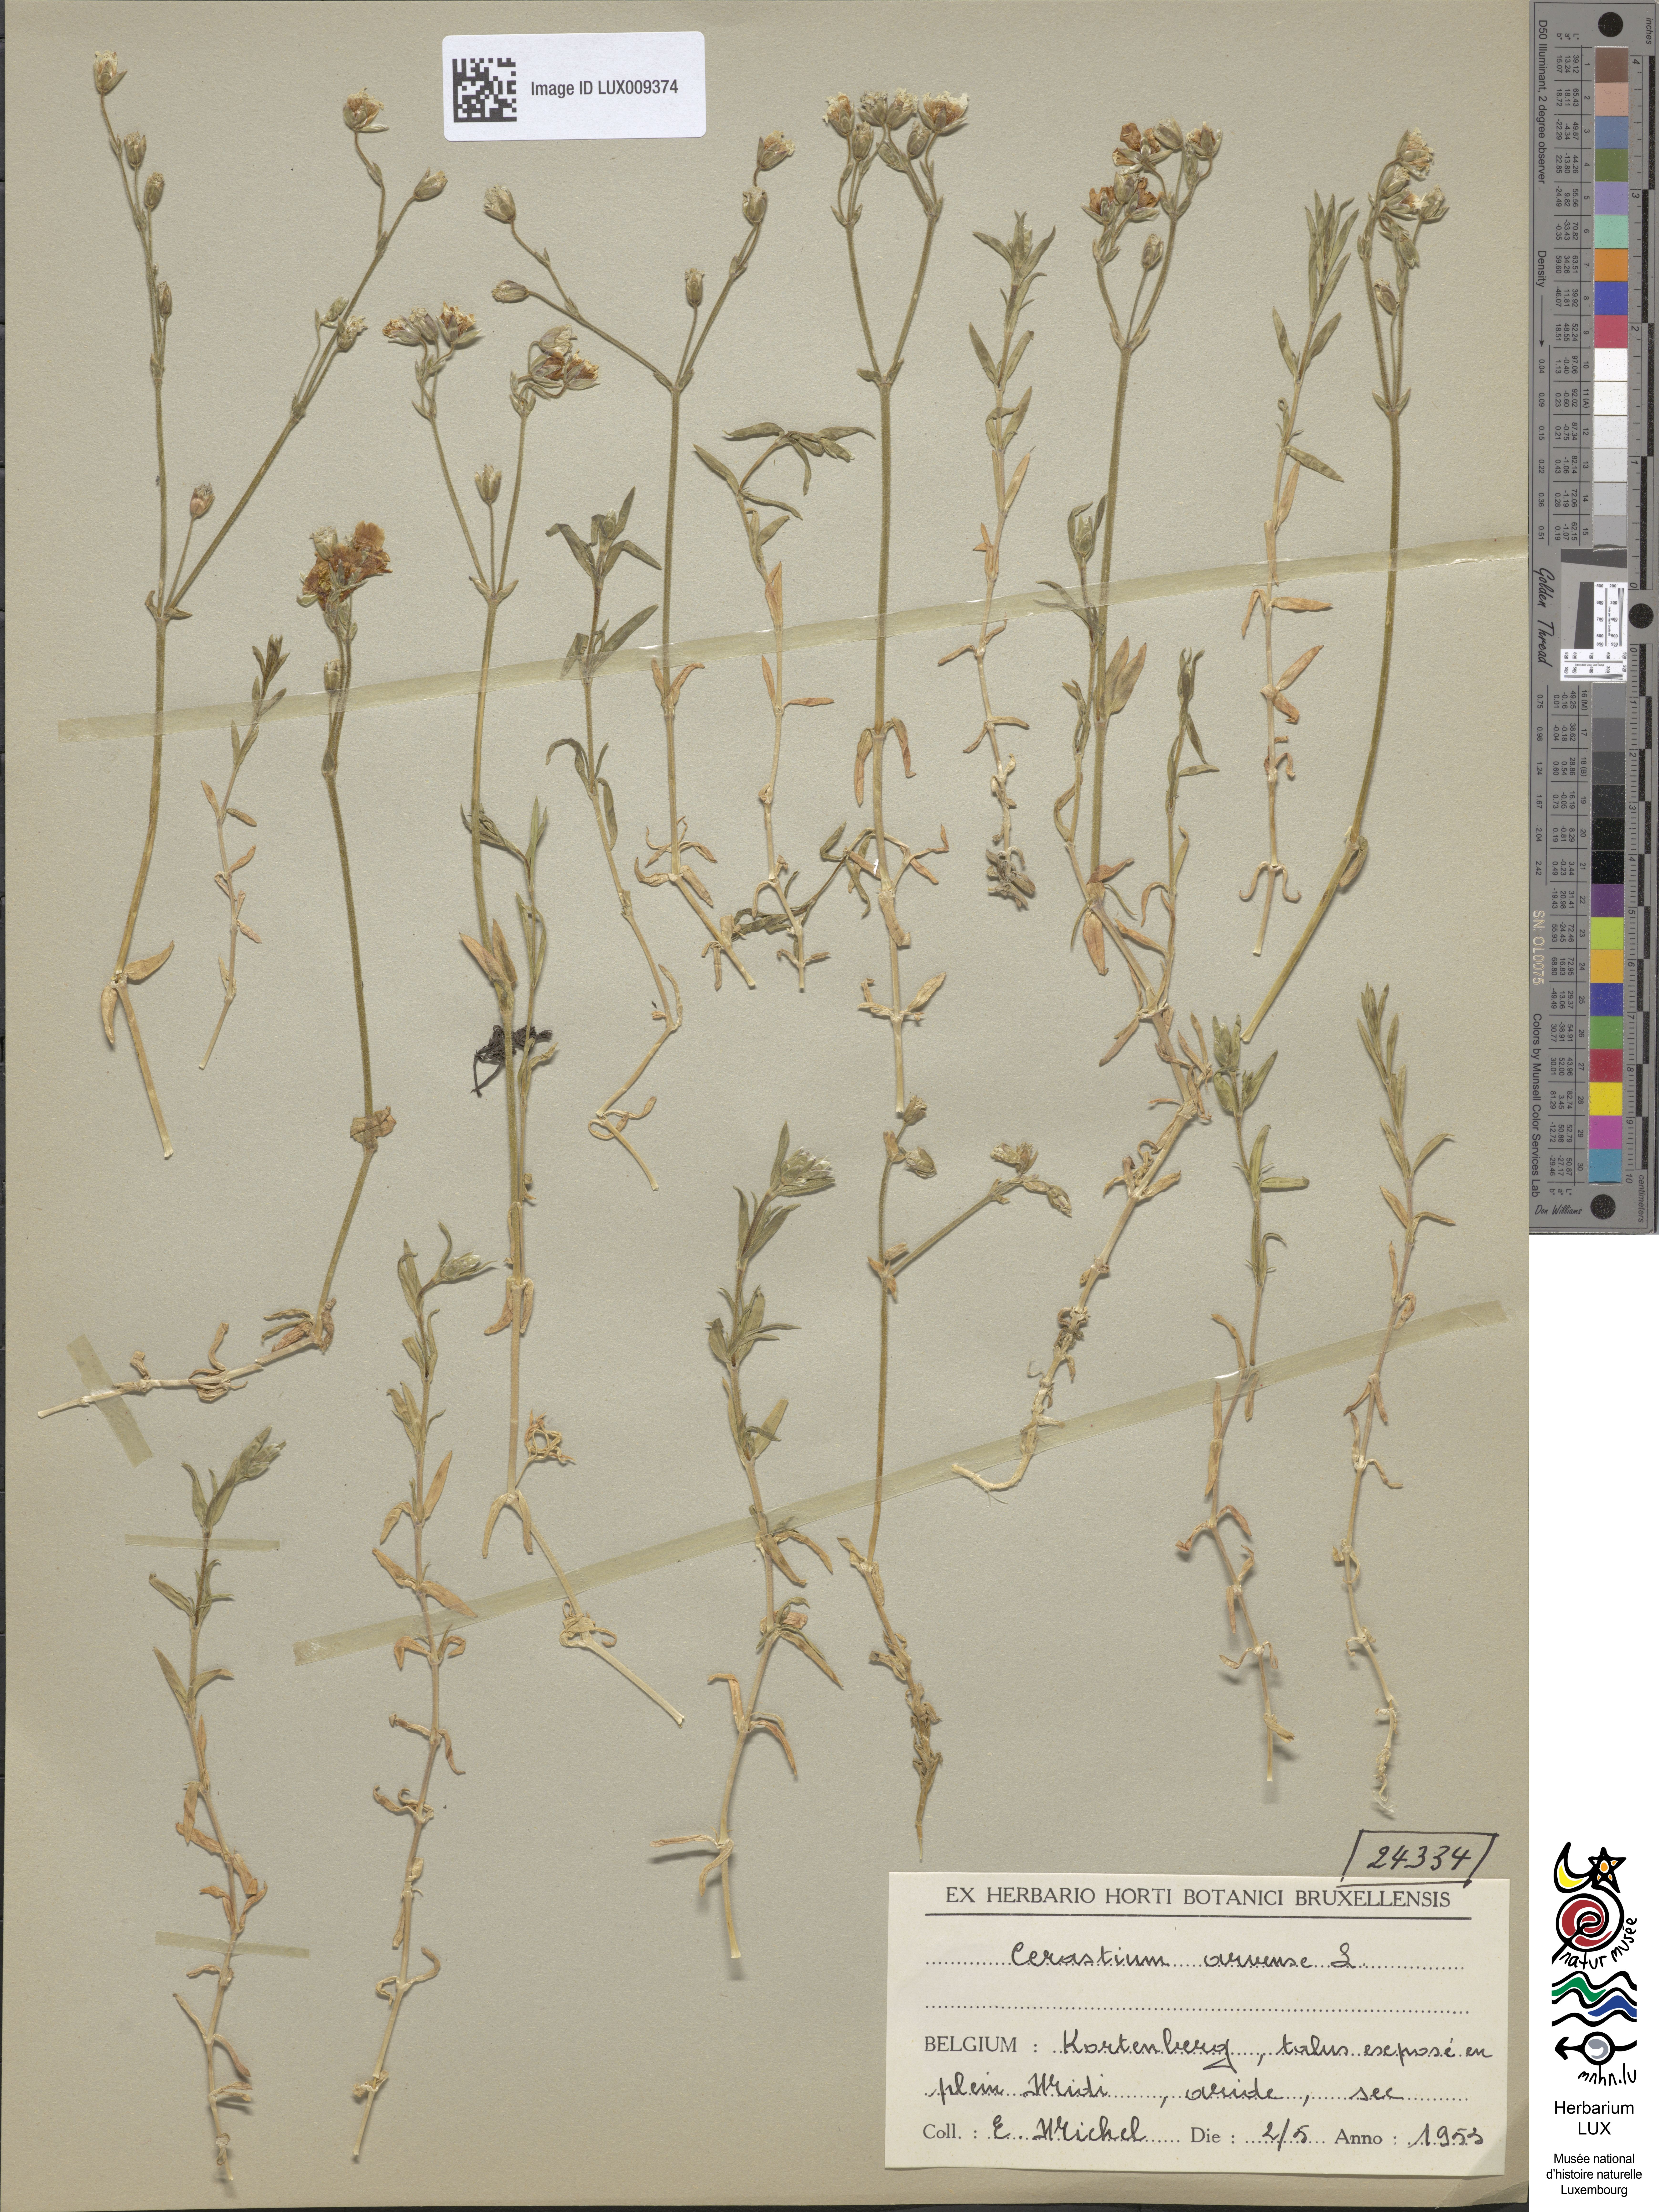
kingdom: Plantae
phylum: Tracheophyta
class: Magnoliopsida
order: Caryophyllales
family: Caryophyllaceae
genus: Cerastium
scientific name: Cerastium arvense
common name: Field mouse-ear
